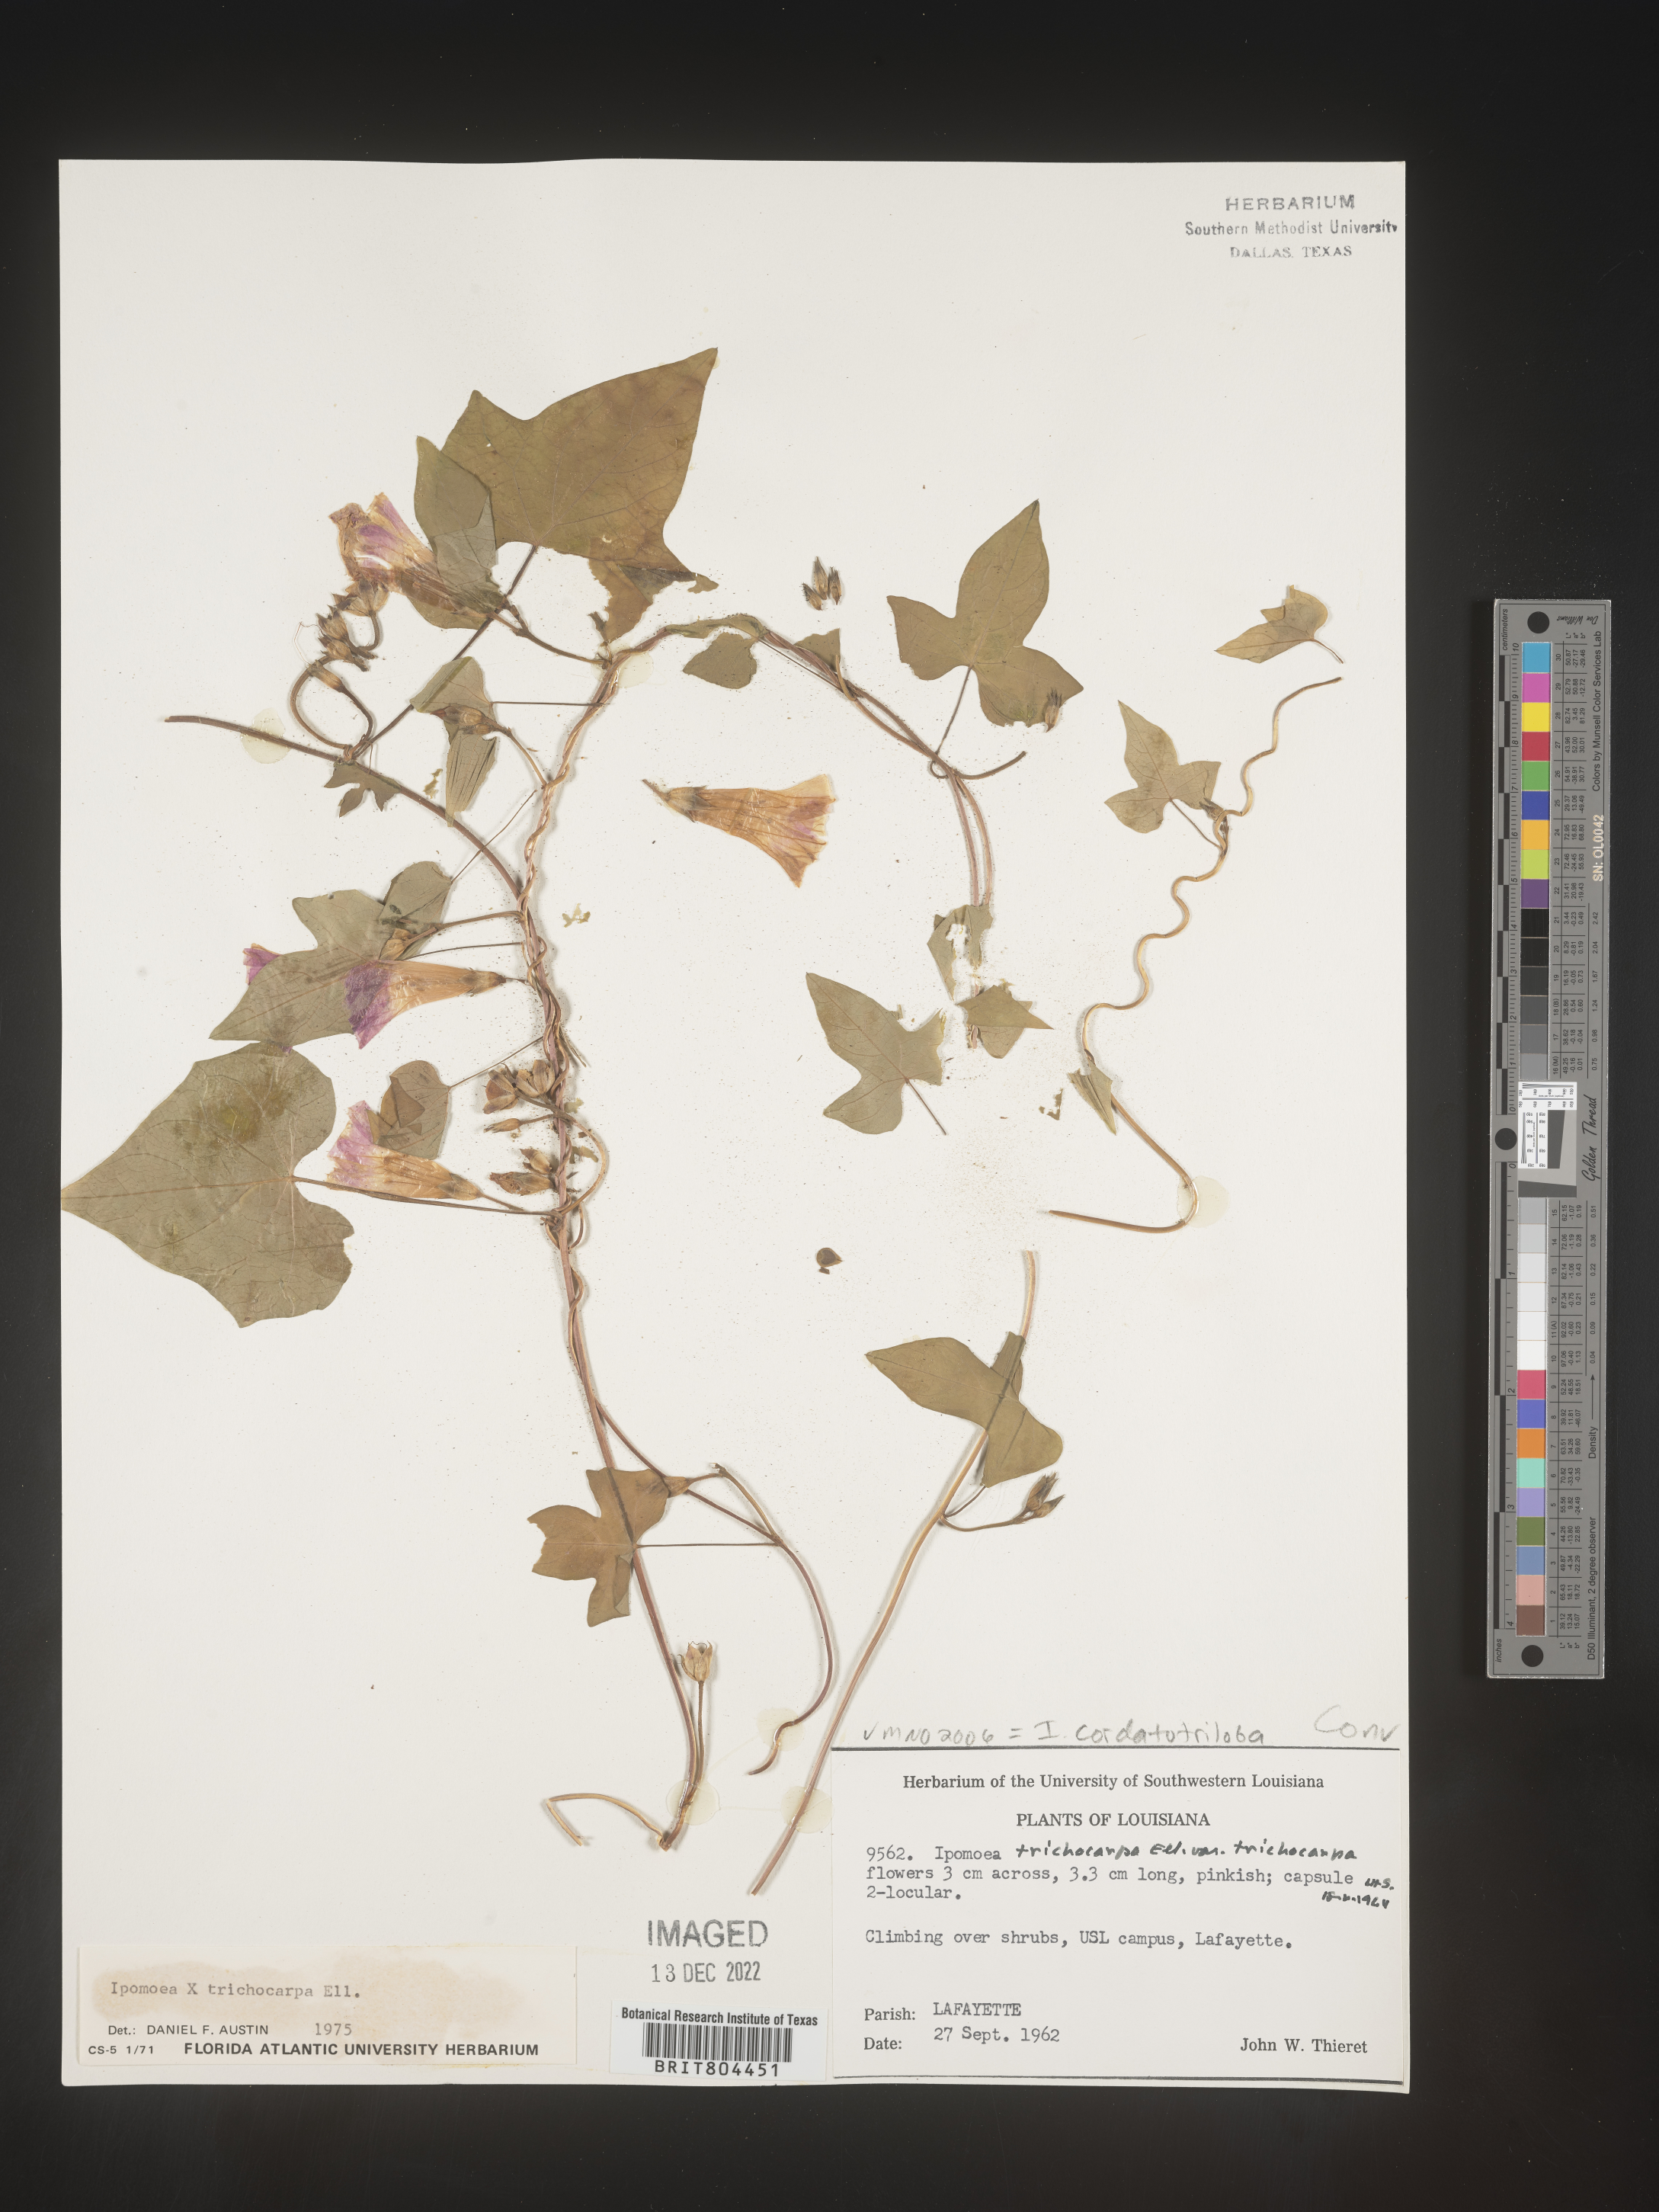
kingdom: Plantae
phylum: Tracheophyta
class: Magnoliopsida
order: Solanales
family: Convolvulaceae
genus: Ipomoea
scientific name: Ipomoea cordatotriloba
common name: Cotton morning glory
